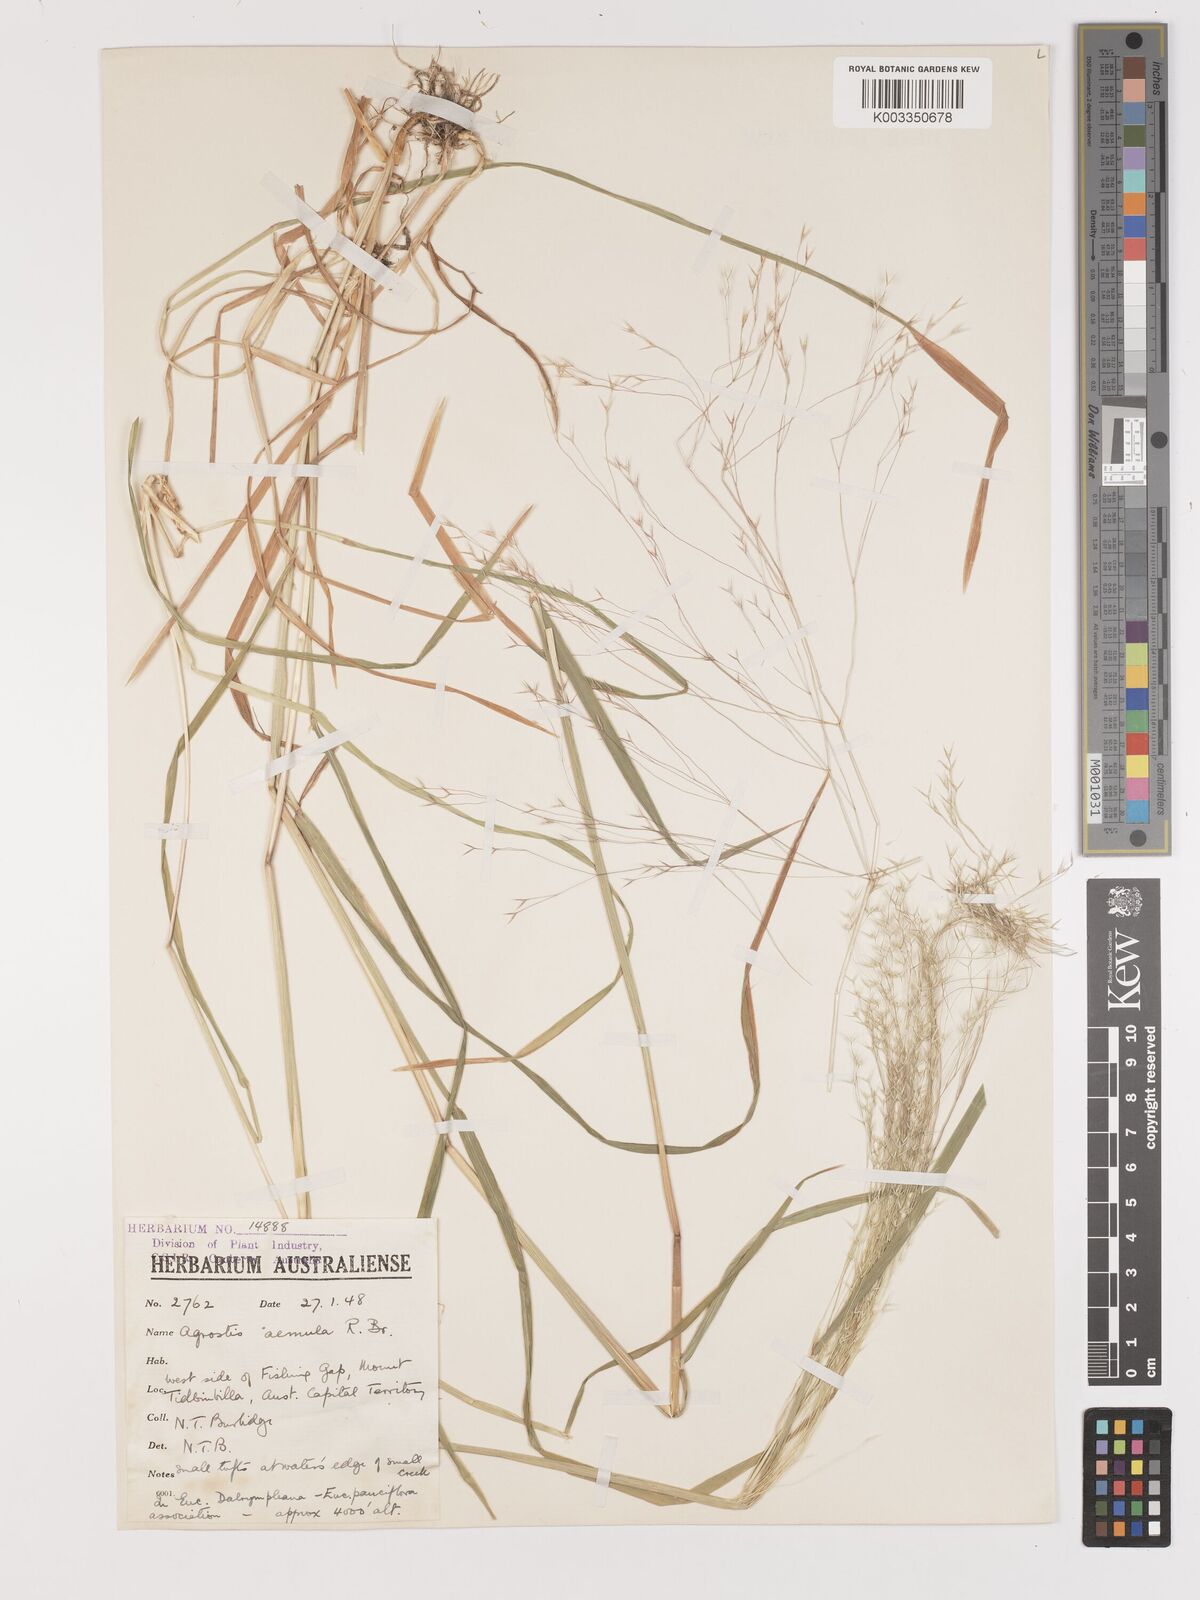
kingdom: Plantae
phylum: Tracheophyta
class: Liliopsida
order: Poales
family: Poaceae
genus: Lachnagrostis
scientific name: Lachnagrostis aemula
